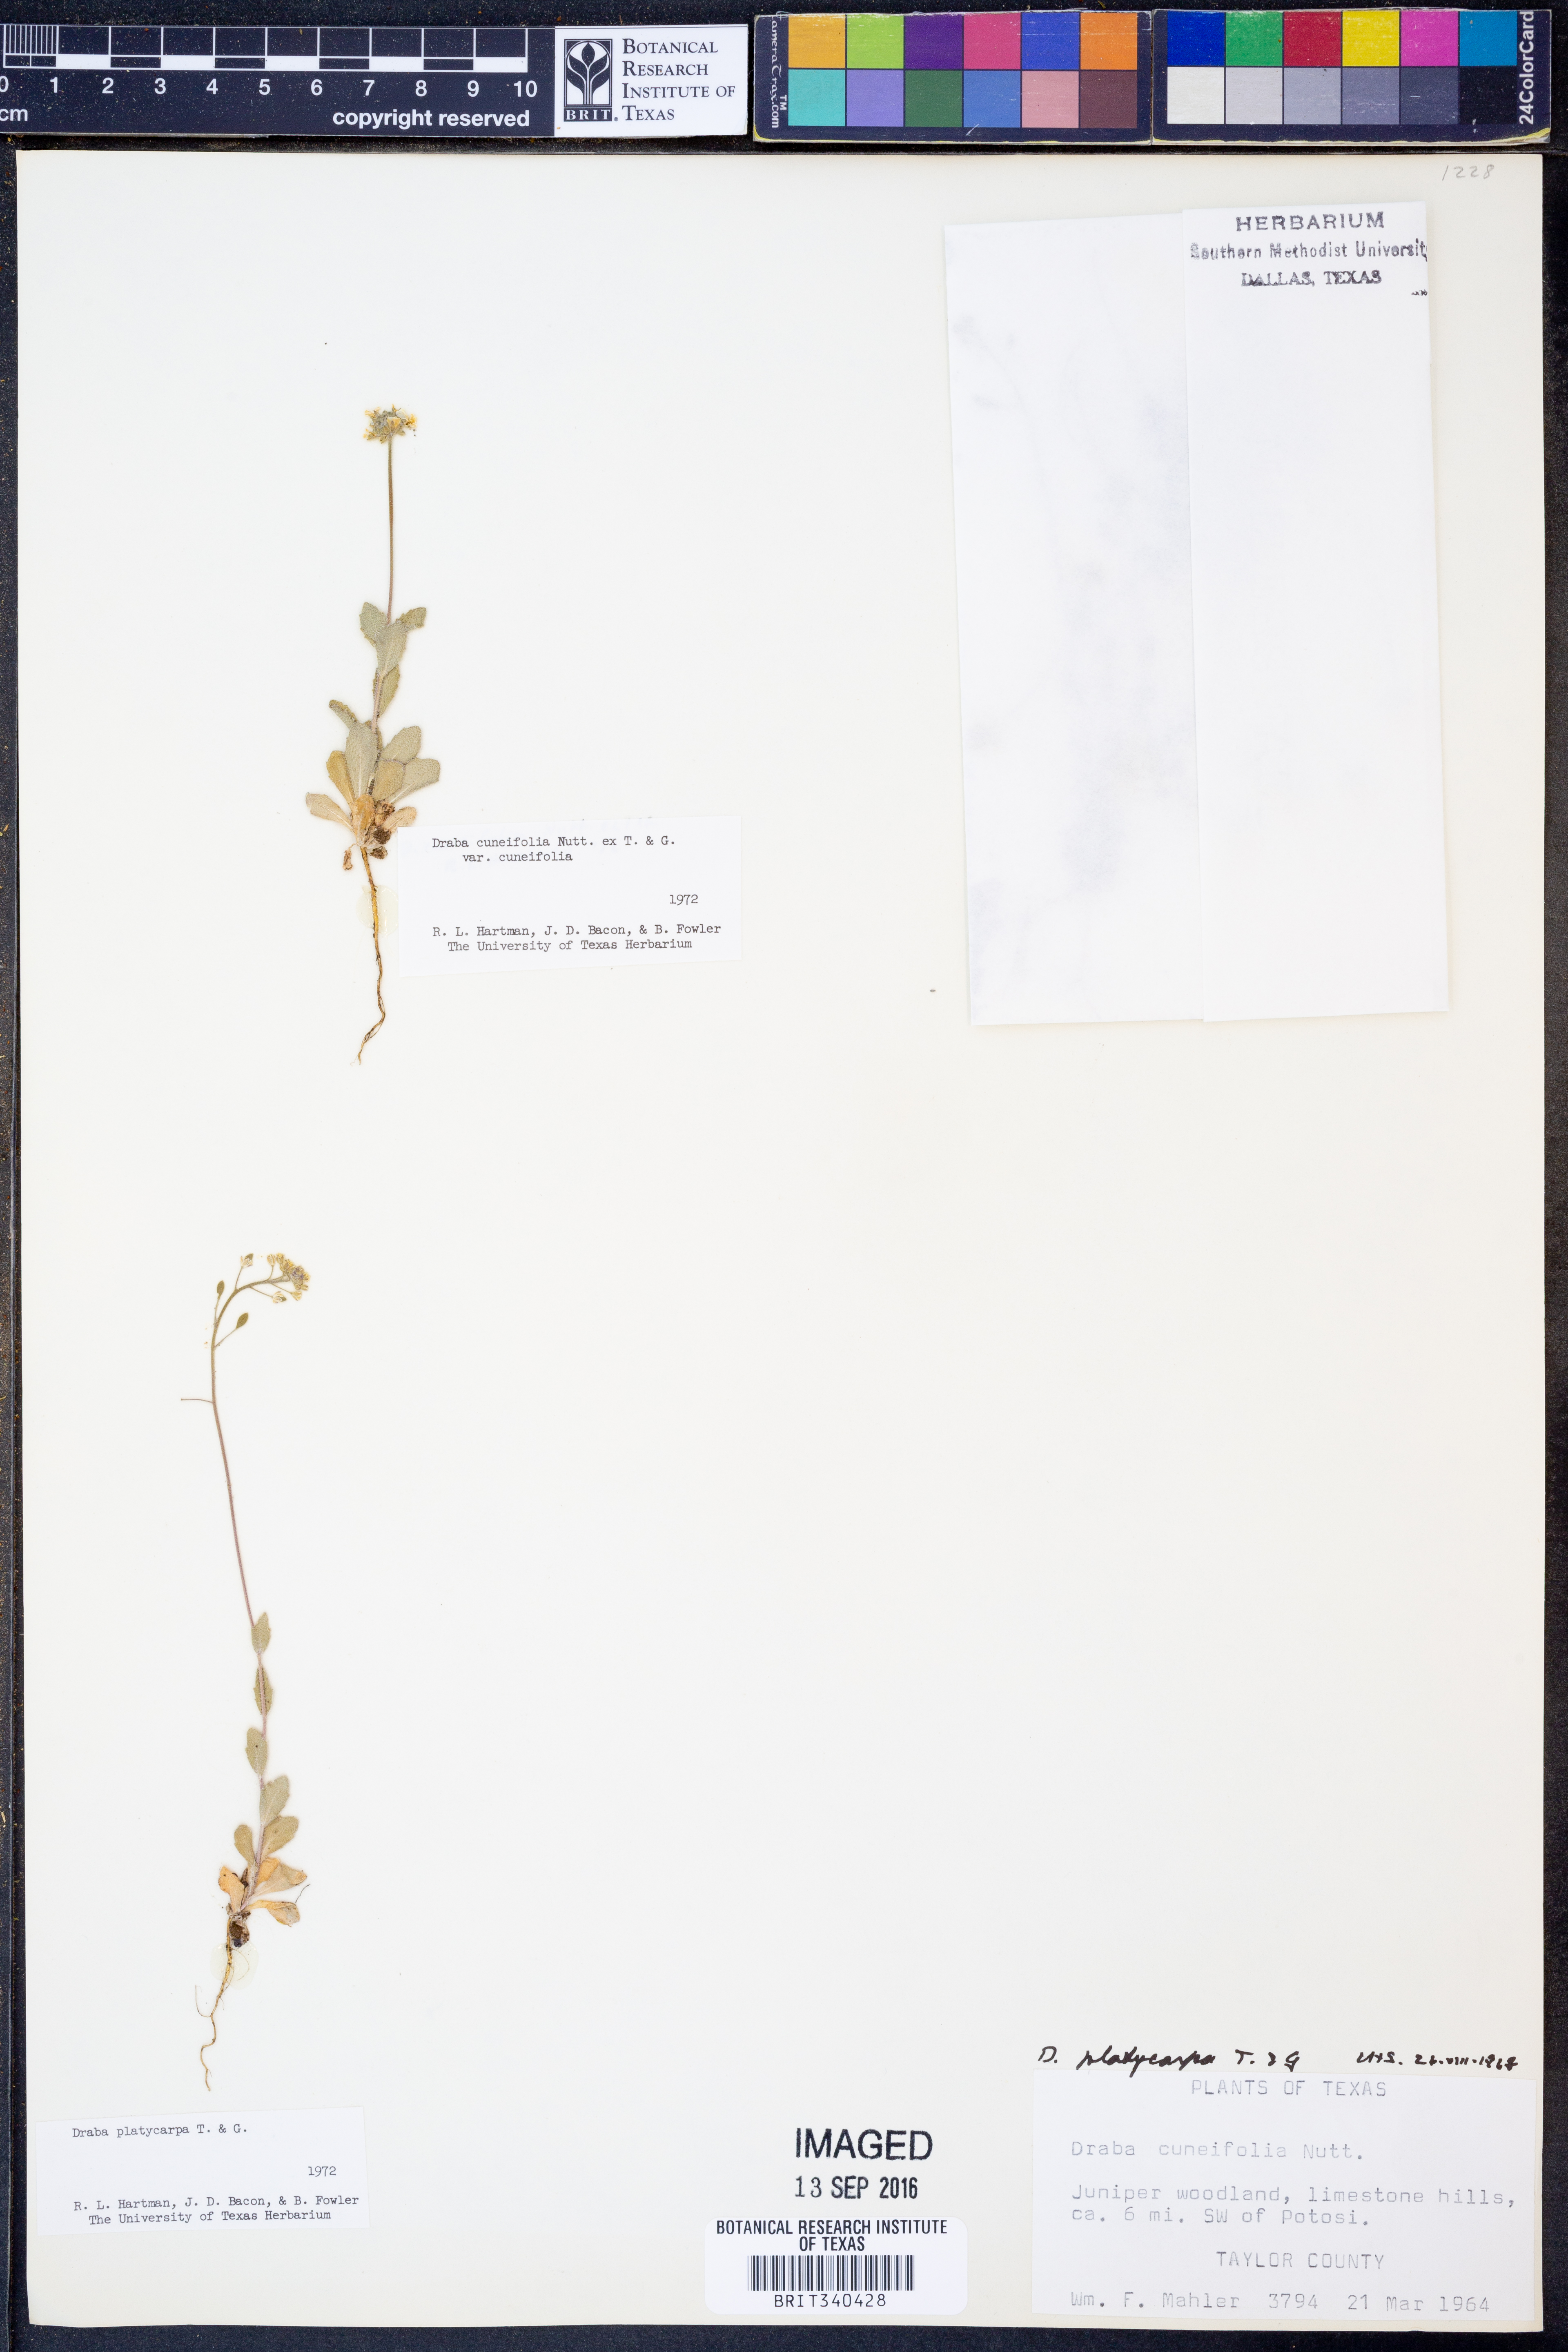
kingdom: Plantae
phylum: Tracheophyta
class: Magnoliopsida
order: Brassicales
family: Brassicaceae
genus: Tomostima
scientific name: Tomostima platycarpa
